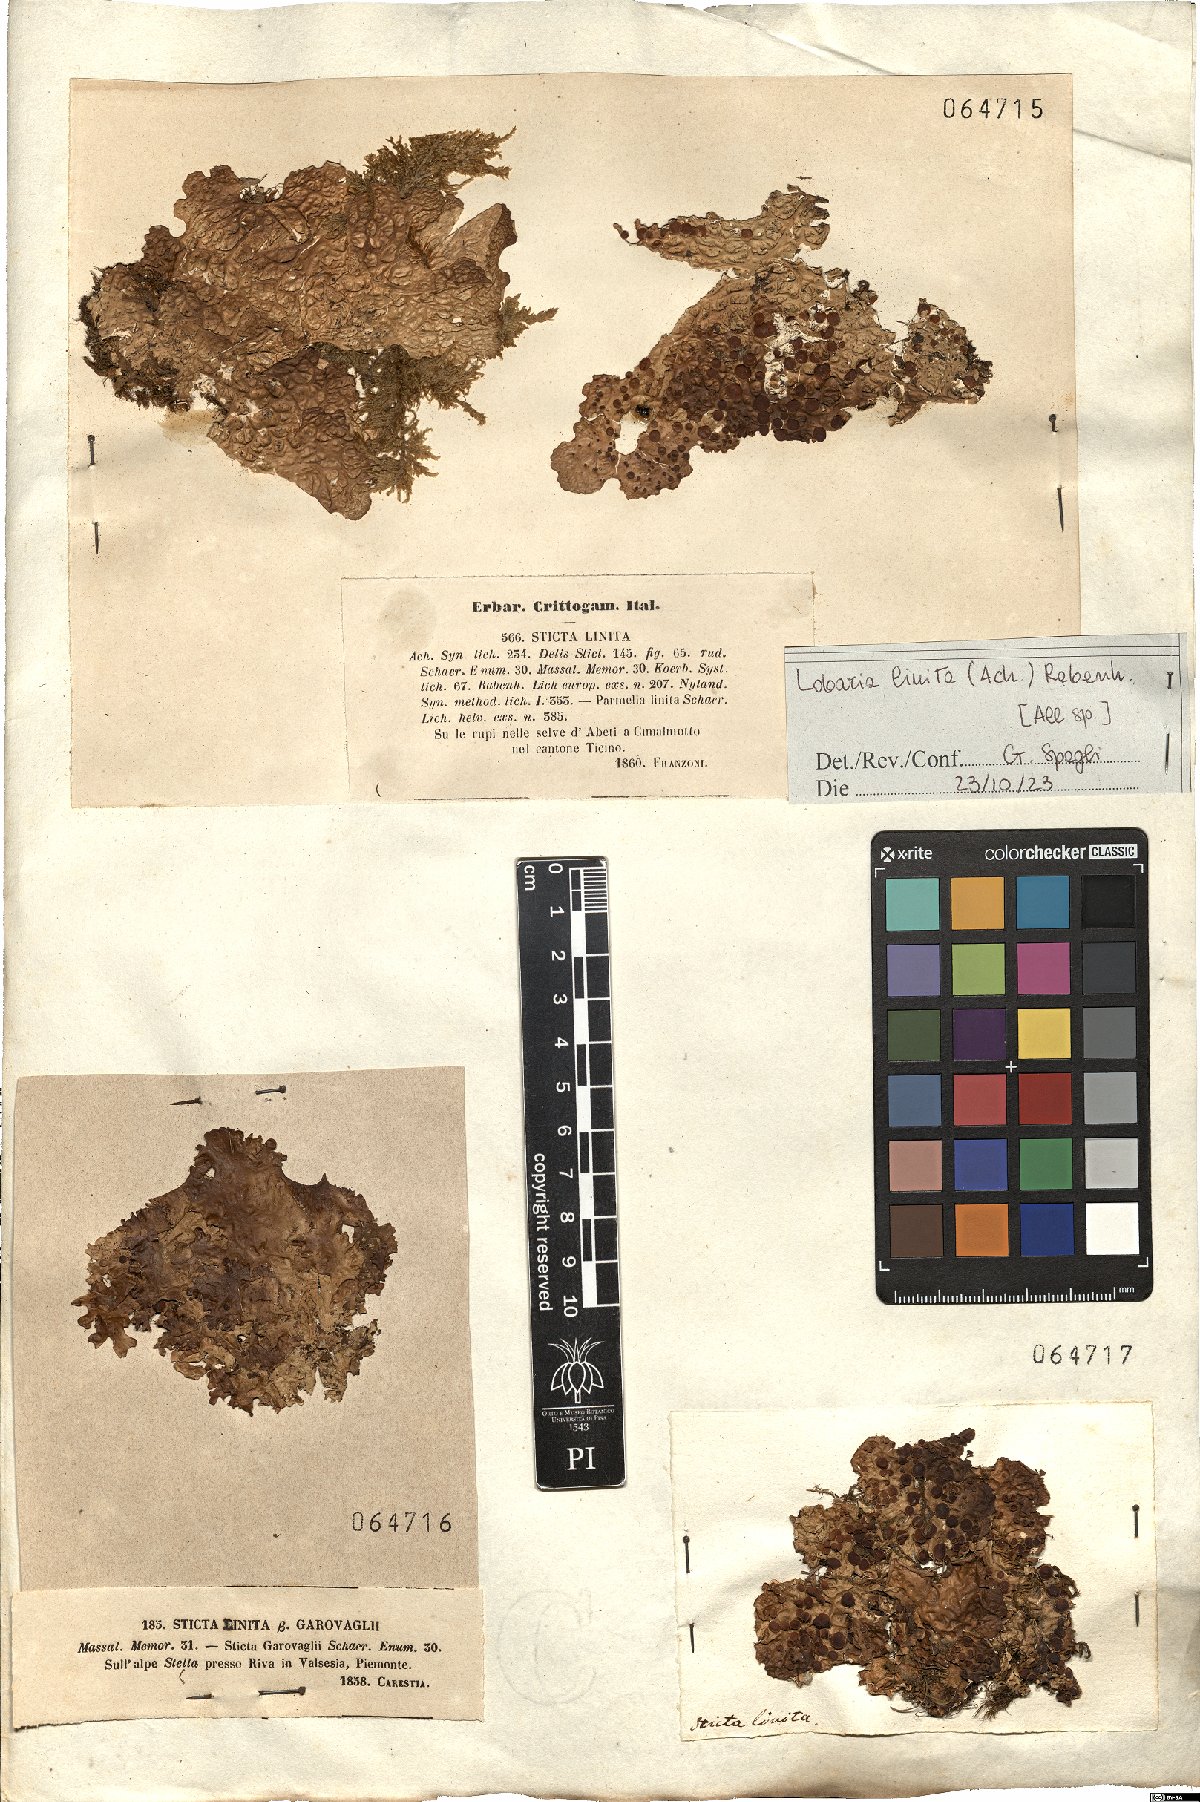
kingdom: Fungi
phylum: Ascomycota
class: Lecanoromycetes
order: Peltigerales
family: Lobariaceae
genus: Lobaria
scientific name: Lobaria linita
